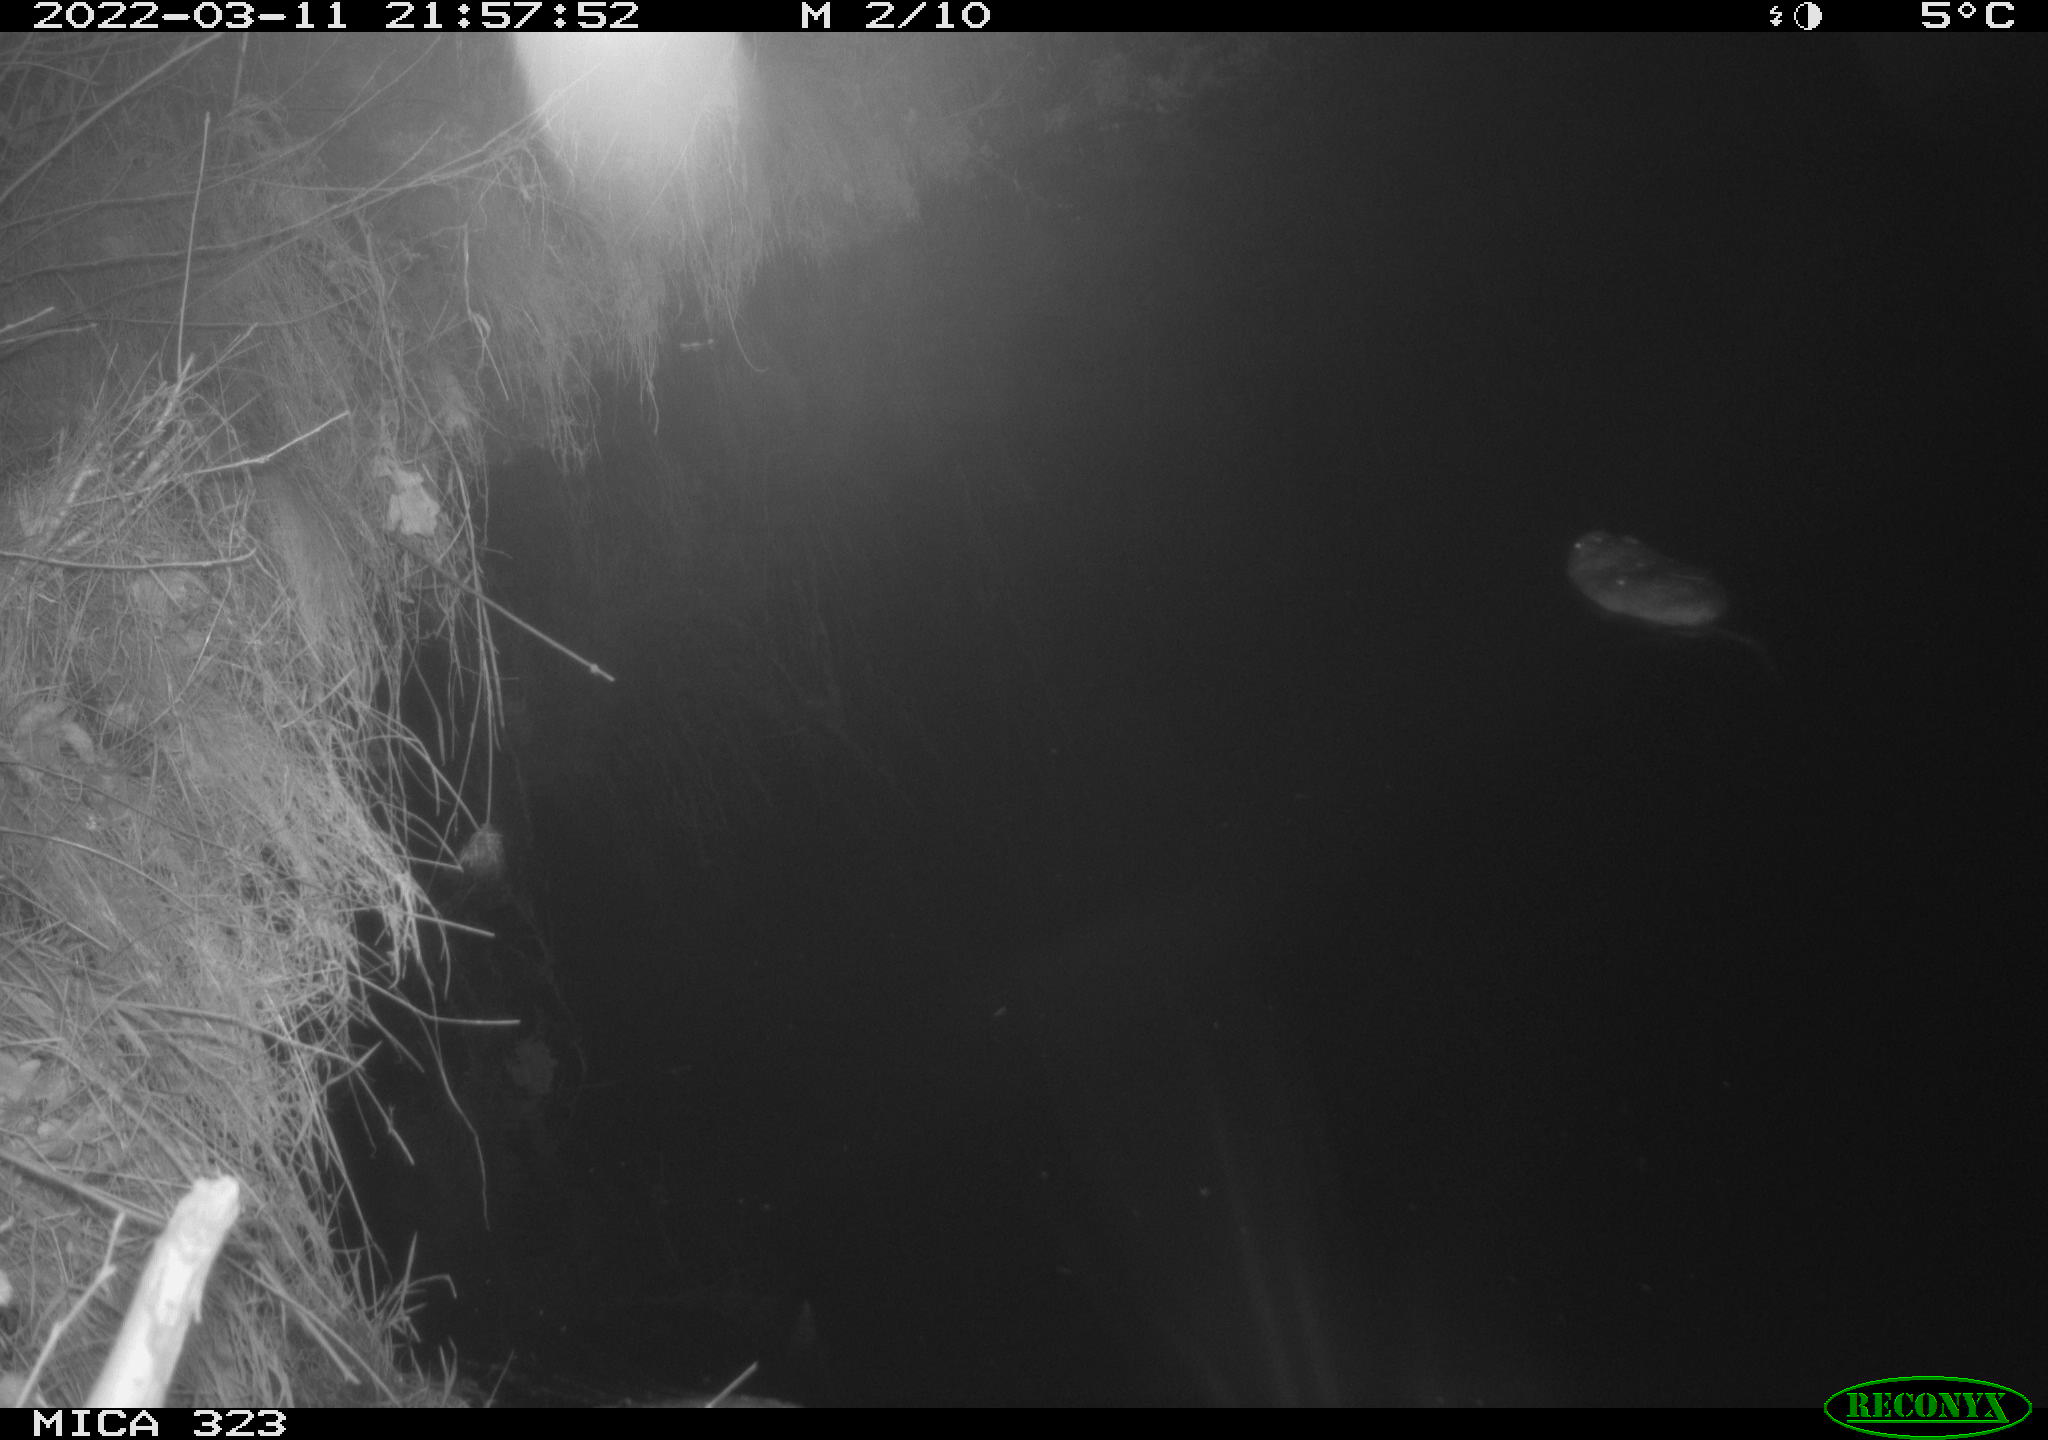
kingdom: Animalia
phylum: Chordata
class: Mammalia
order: Rodentia
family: Cricetidae
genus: Ondatra
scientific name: Ondatra zibethicus
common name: Muskrat
